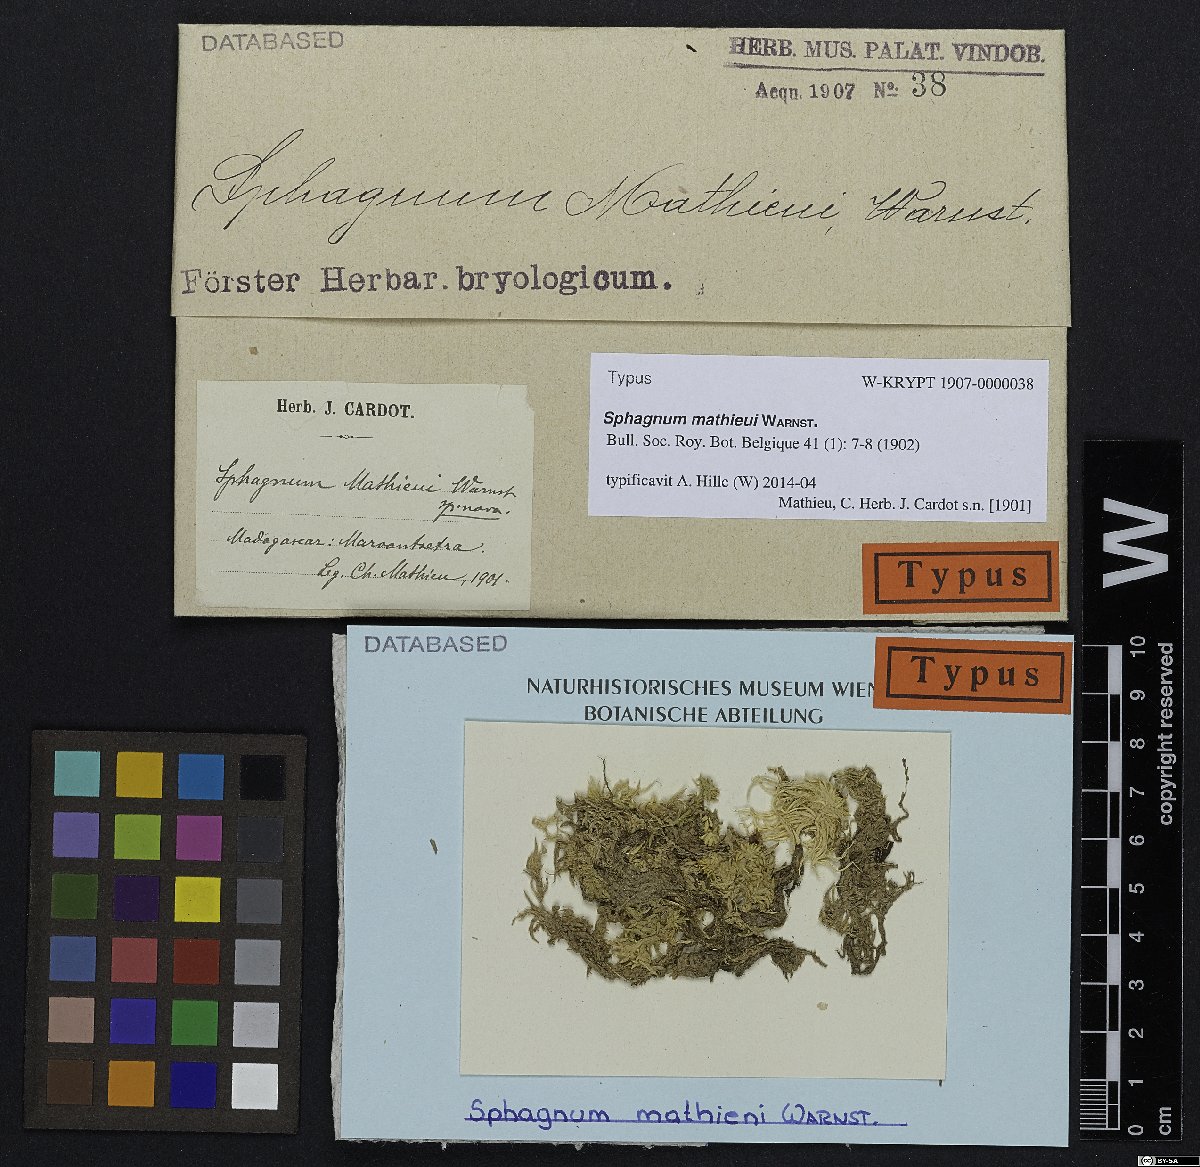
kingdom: Plantae
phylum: Bryophyta
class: Sphagnopsida
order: Sphagnales
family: Sphagnaceae
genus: Sphagnum
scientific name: Sphagnum truncatum
